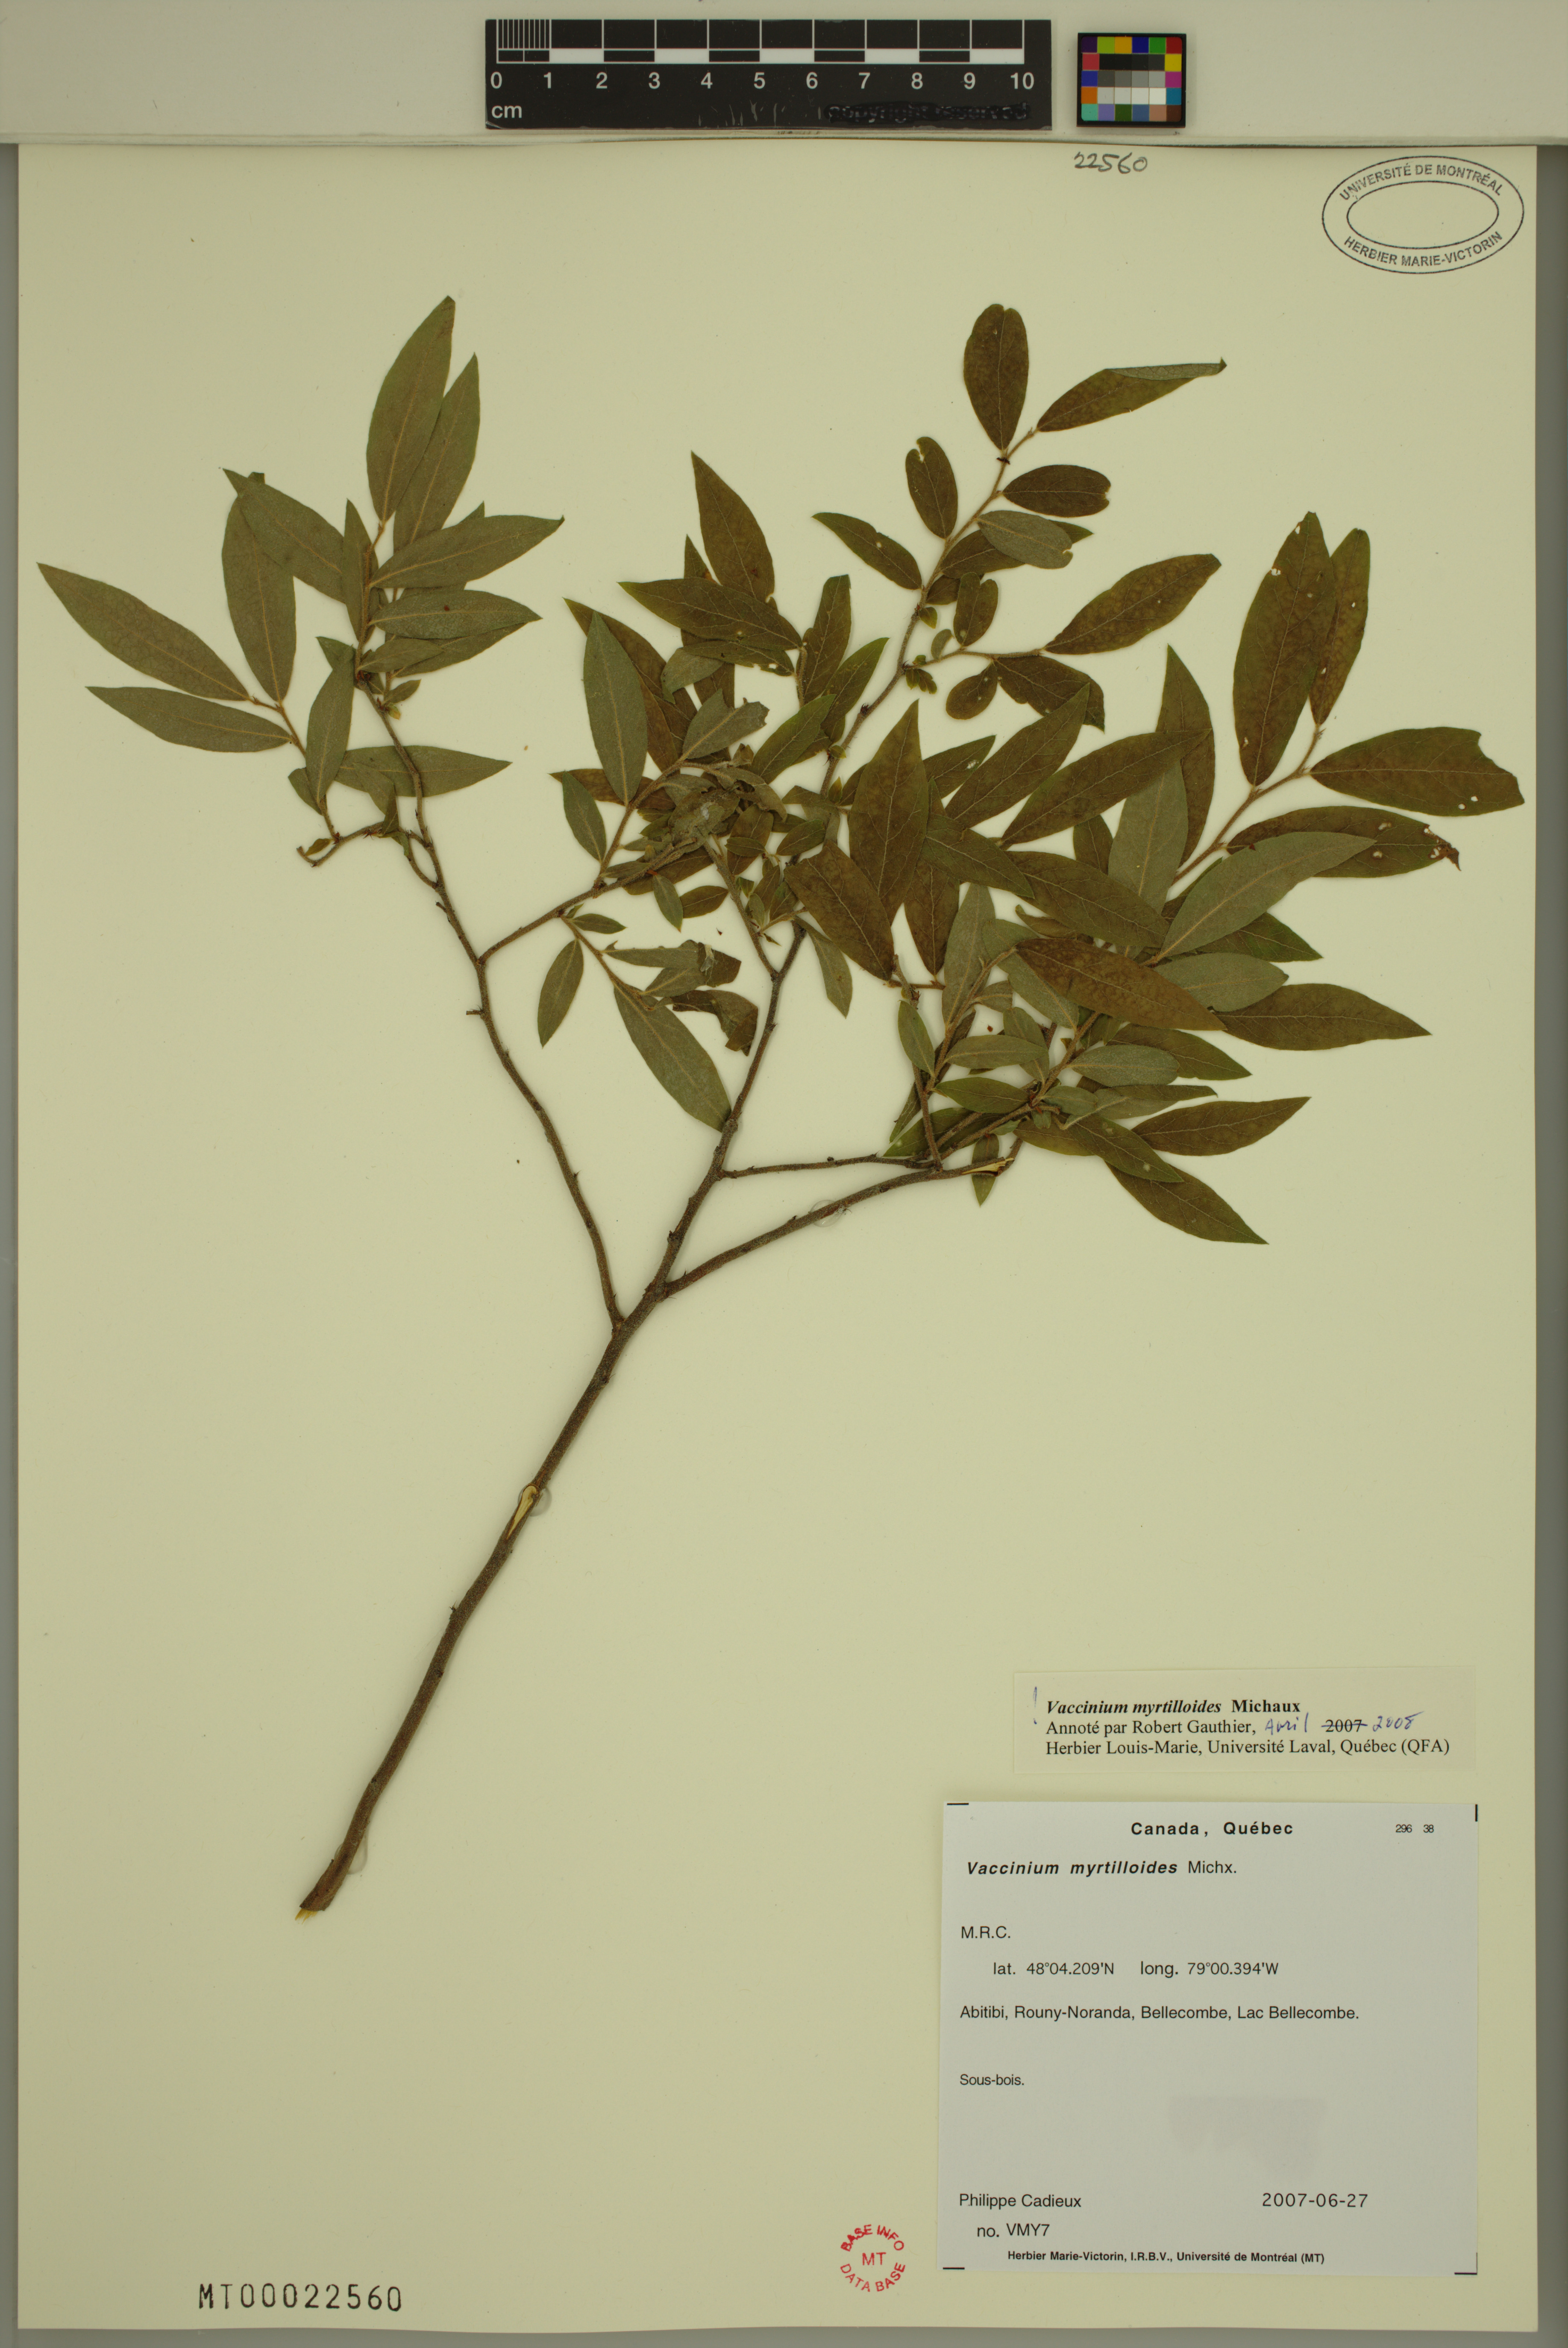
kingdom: Plantae
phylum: Tracheophyta
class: Magnoliopsida
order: Ericales
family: Ericaceae
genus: Vaccinium
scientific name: Vaccinium myrtilloides
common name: Canada blueberry
